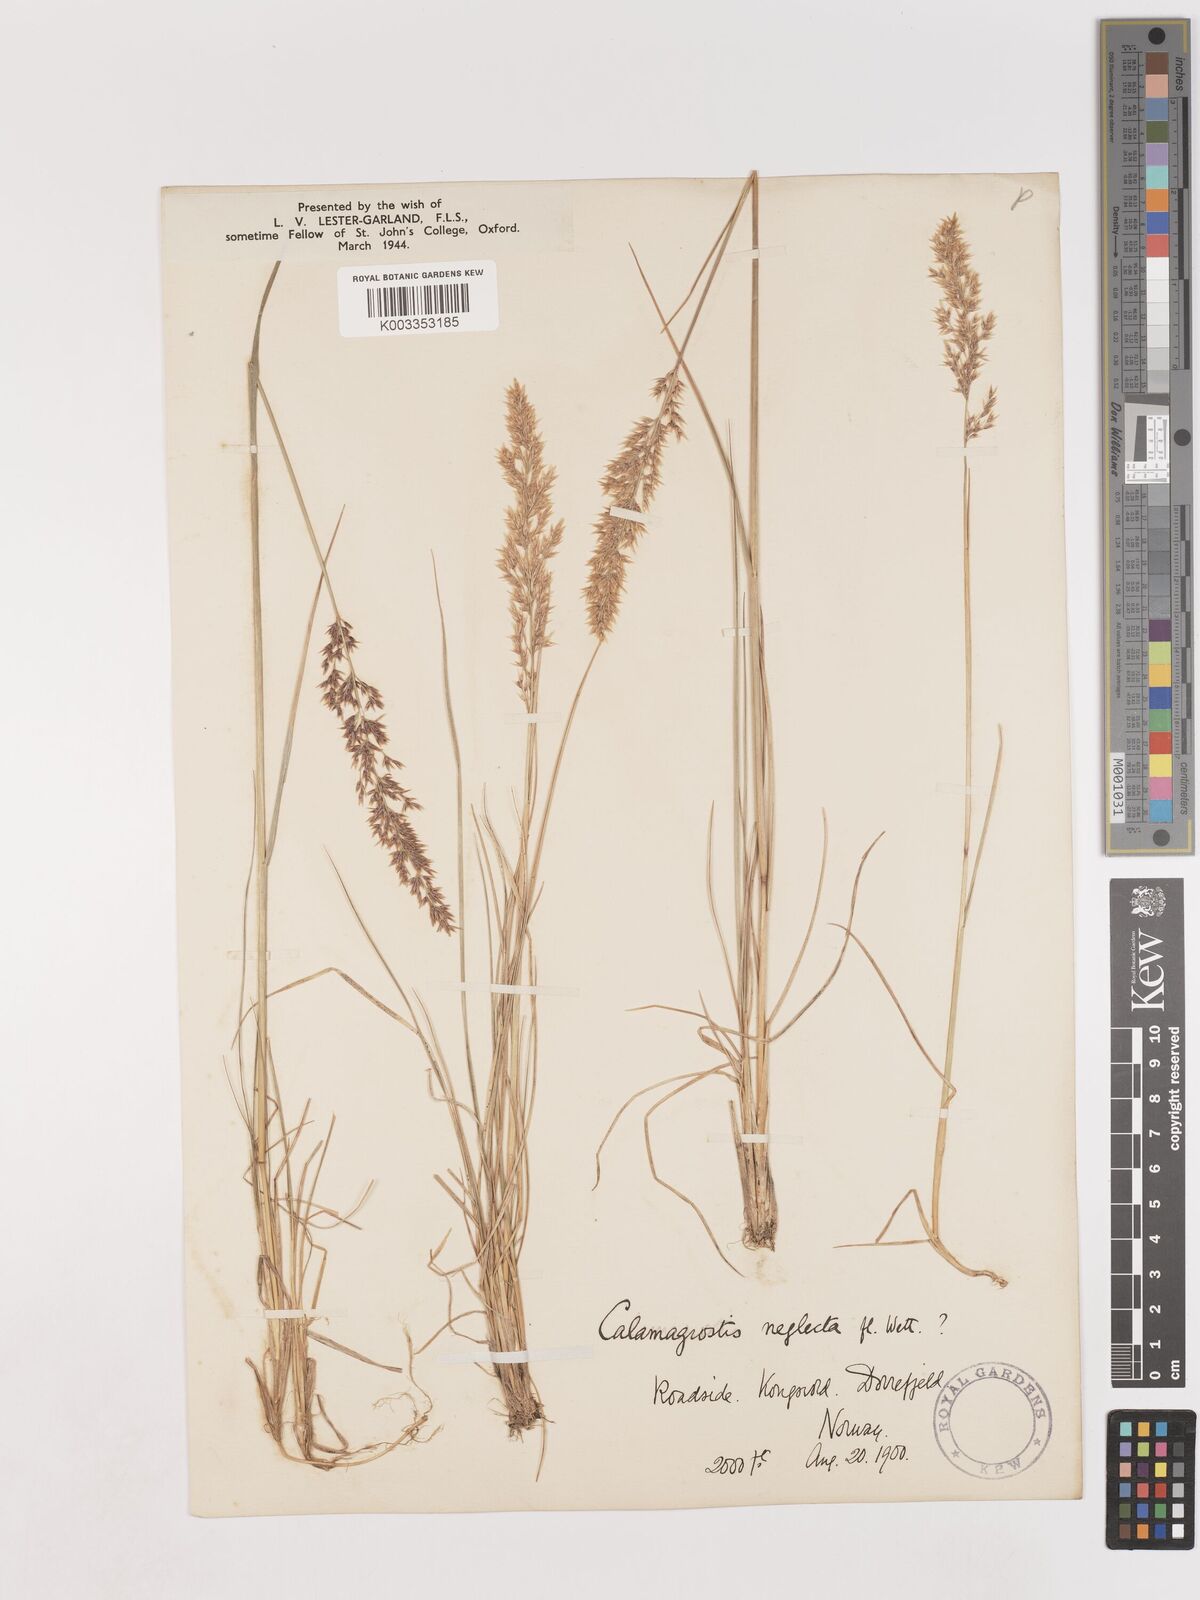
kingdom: Plantae
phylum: Tracheophyta
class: Liliopsida
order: Poales
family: Poaceae
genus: Cinnagrostis
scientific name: Cinnagrostis recta
